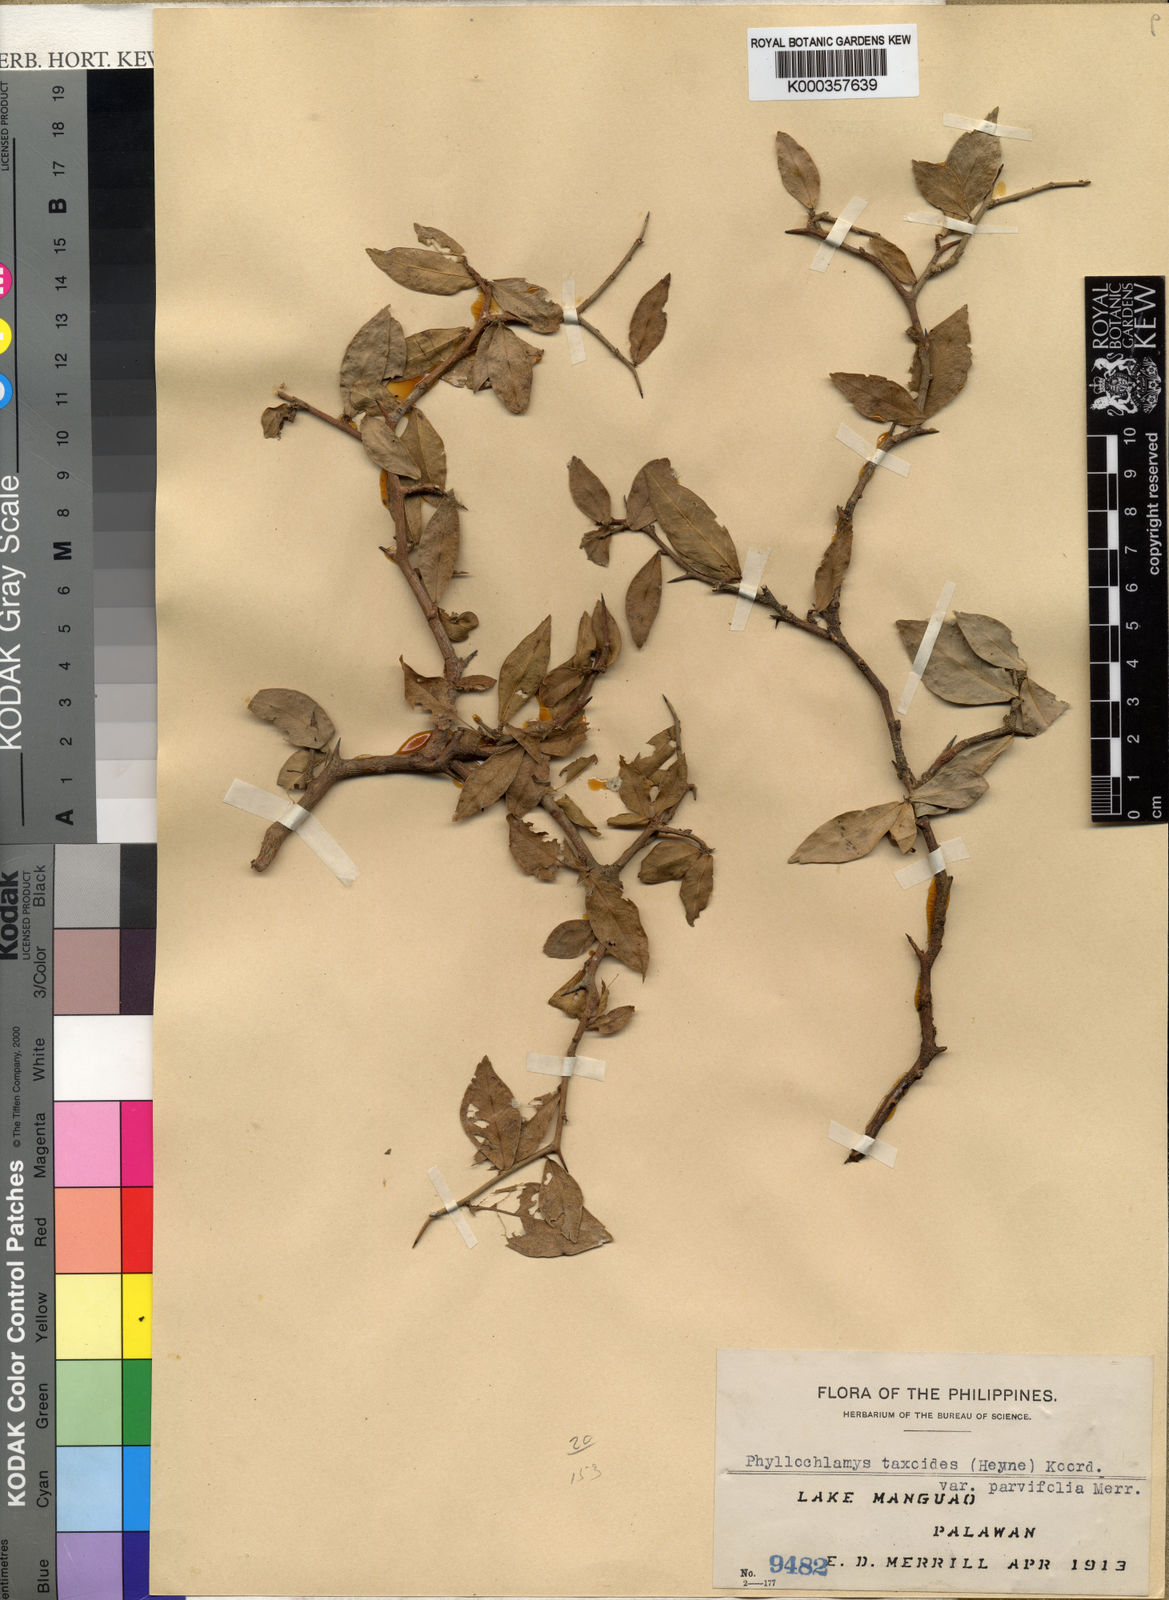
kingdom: Plantae
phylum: Tracheophyta
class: Magnoliopsida
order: Rosales
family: Moraceae
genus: Taxotrophis
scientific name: Taxotrophis
